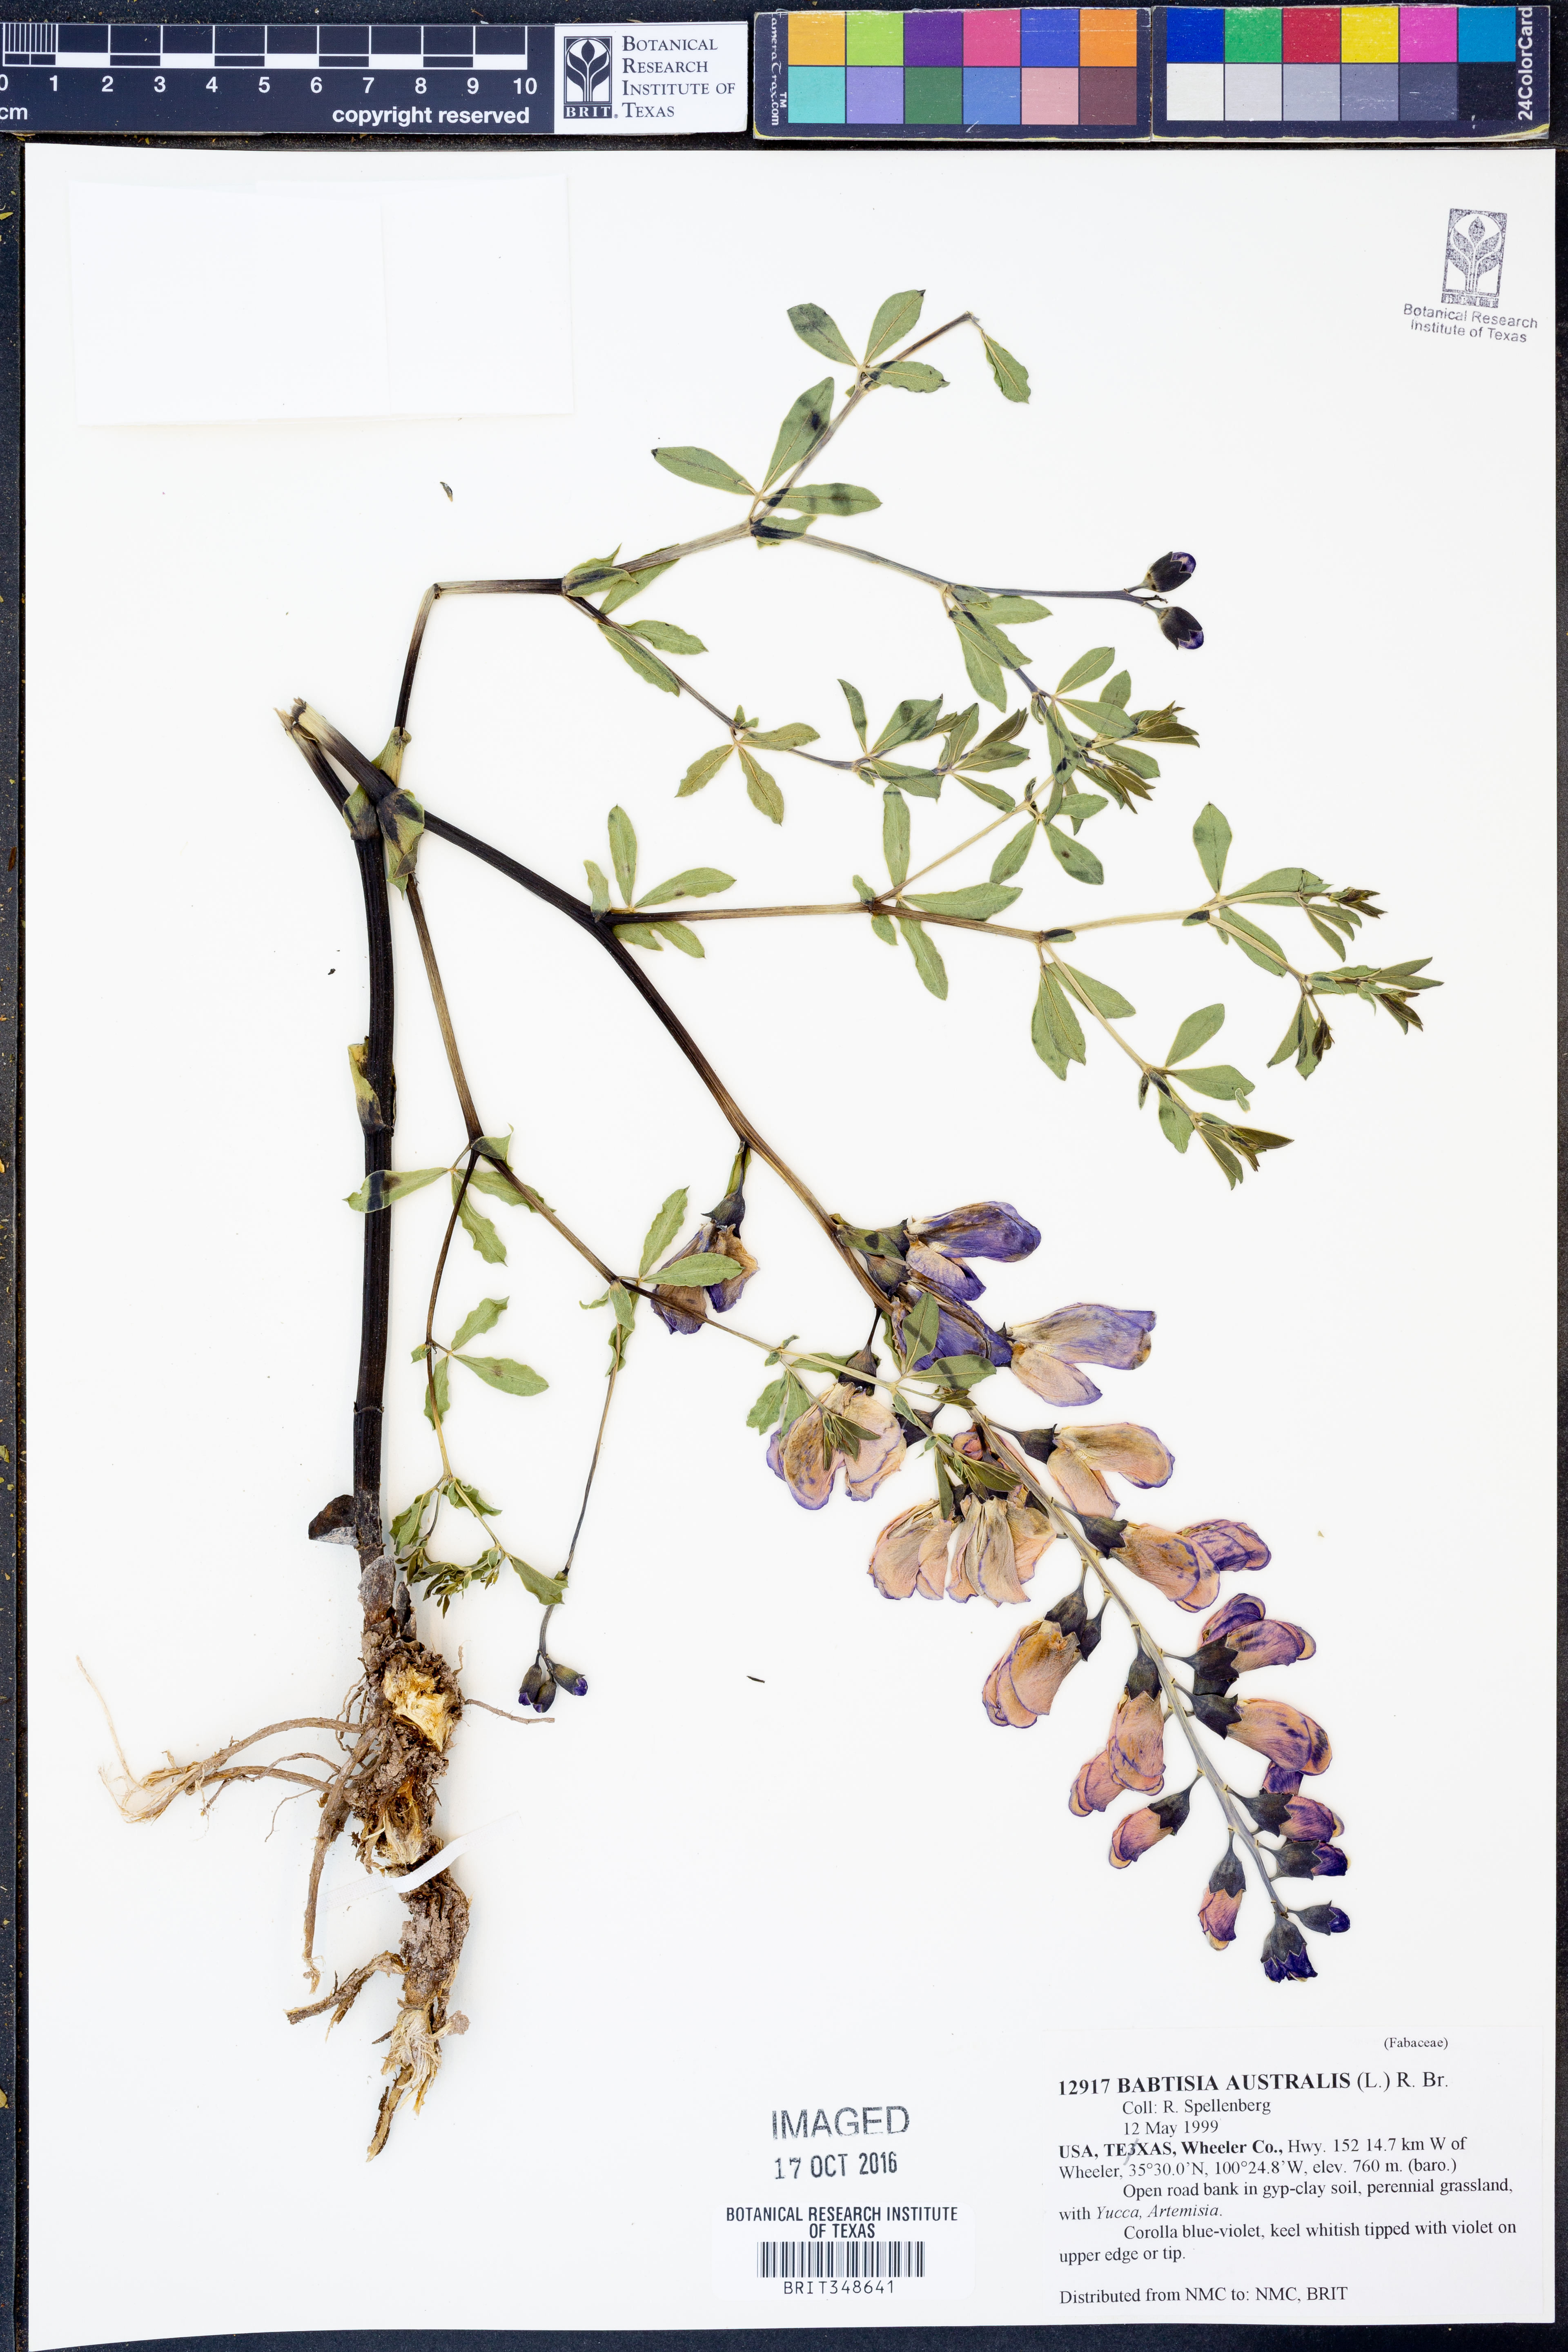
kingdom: Plantae
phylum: Tracheophyta
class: Magnoliopsida
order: Fabales
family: Fabaceae
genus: Baptisia
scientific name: Baptisia australis
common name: Blue false indigo
